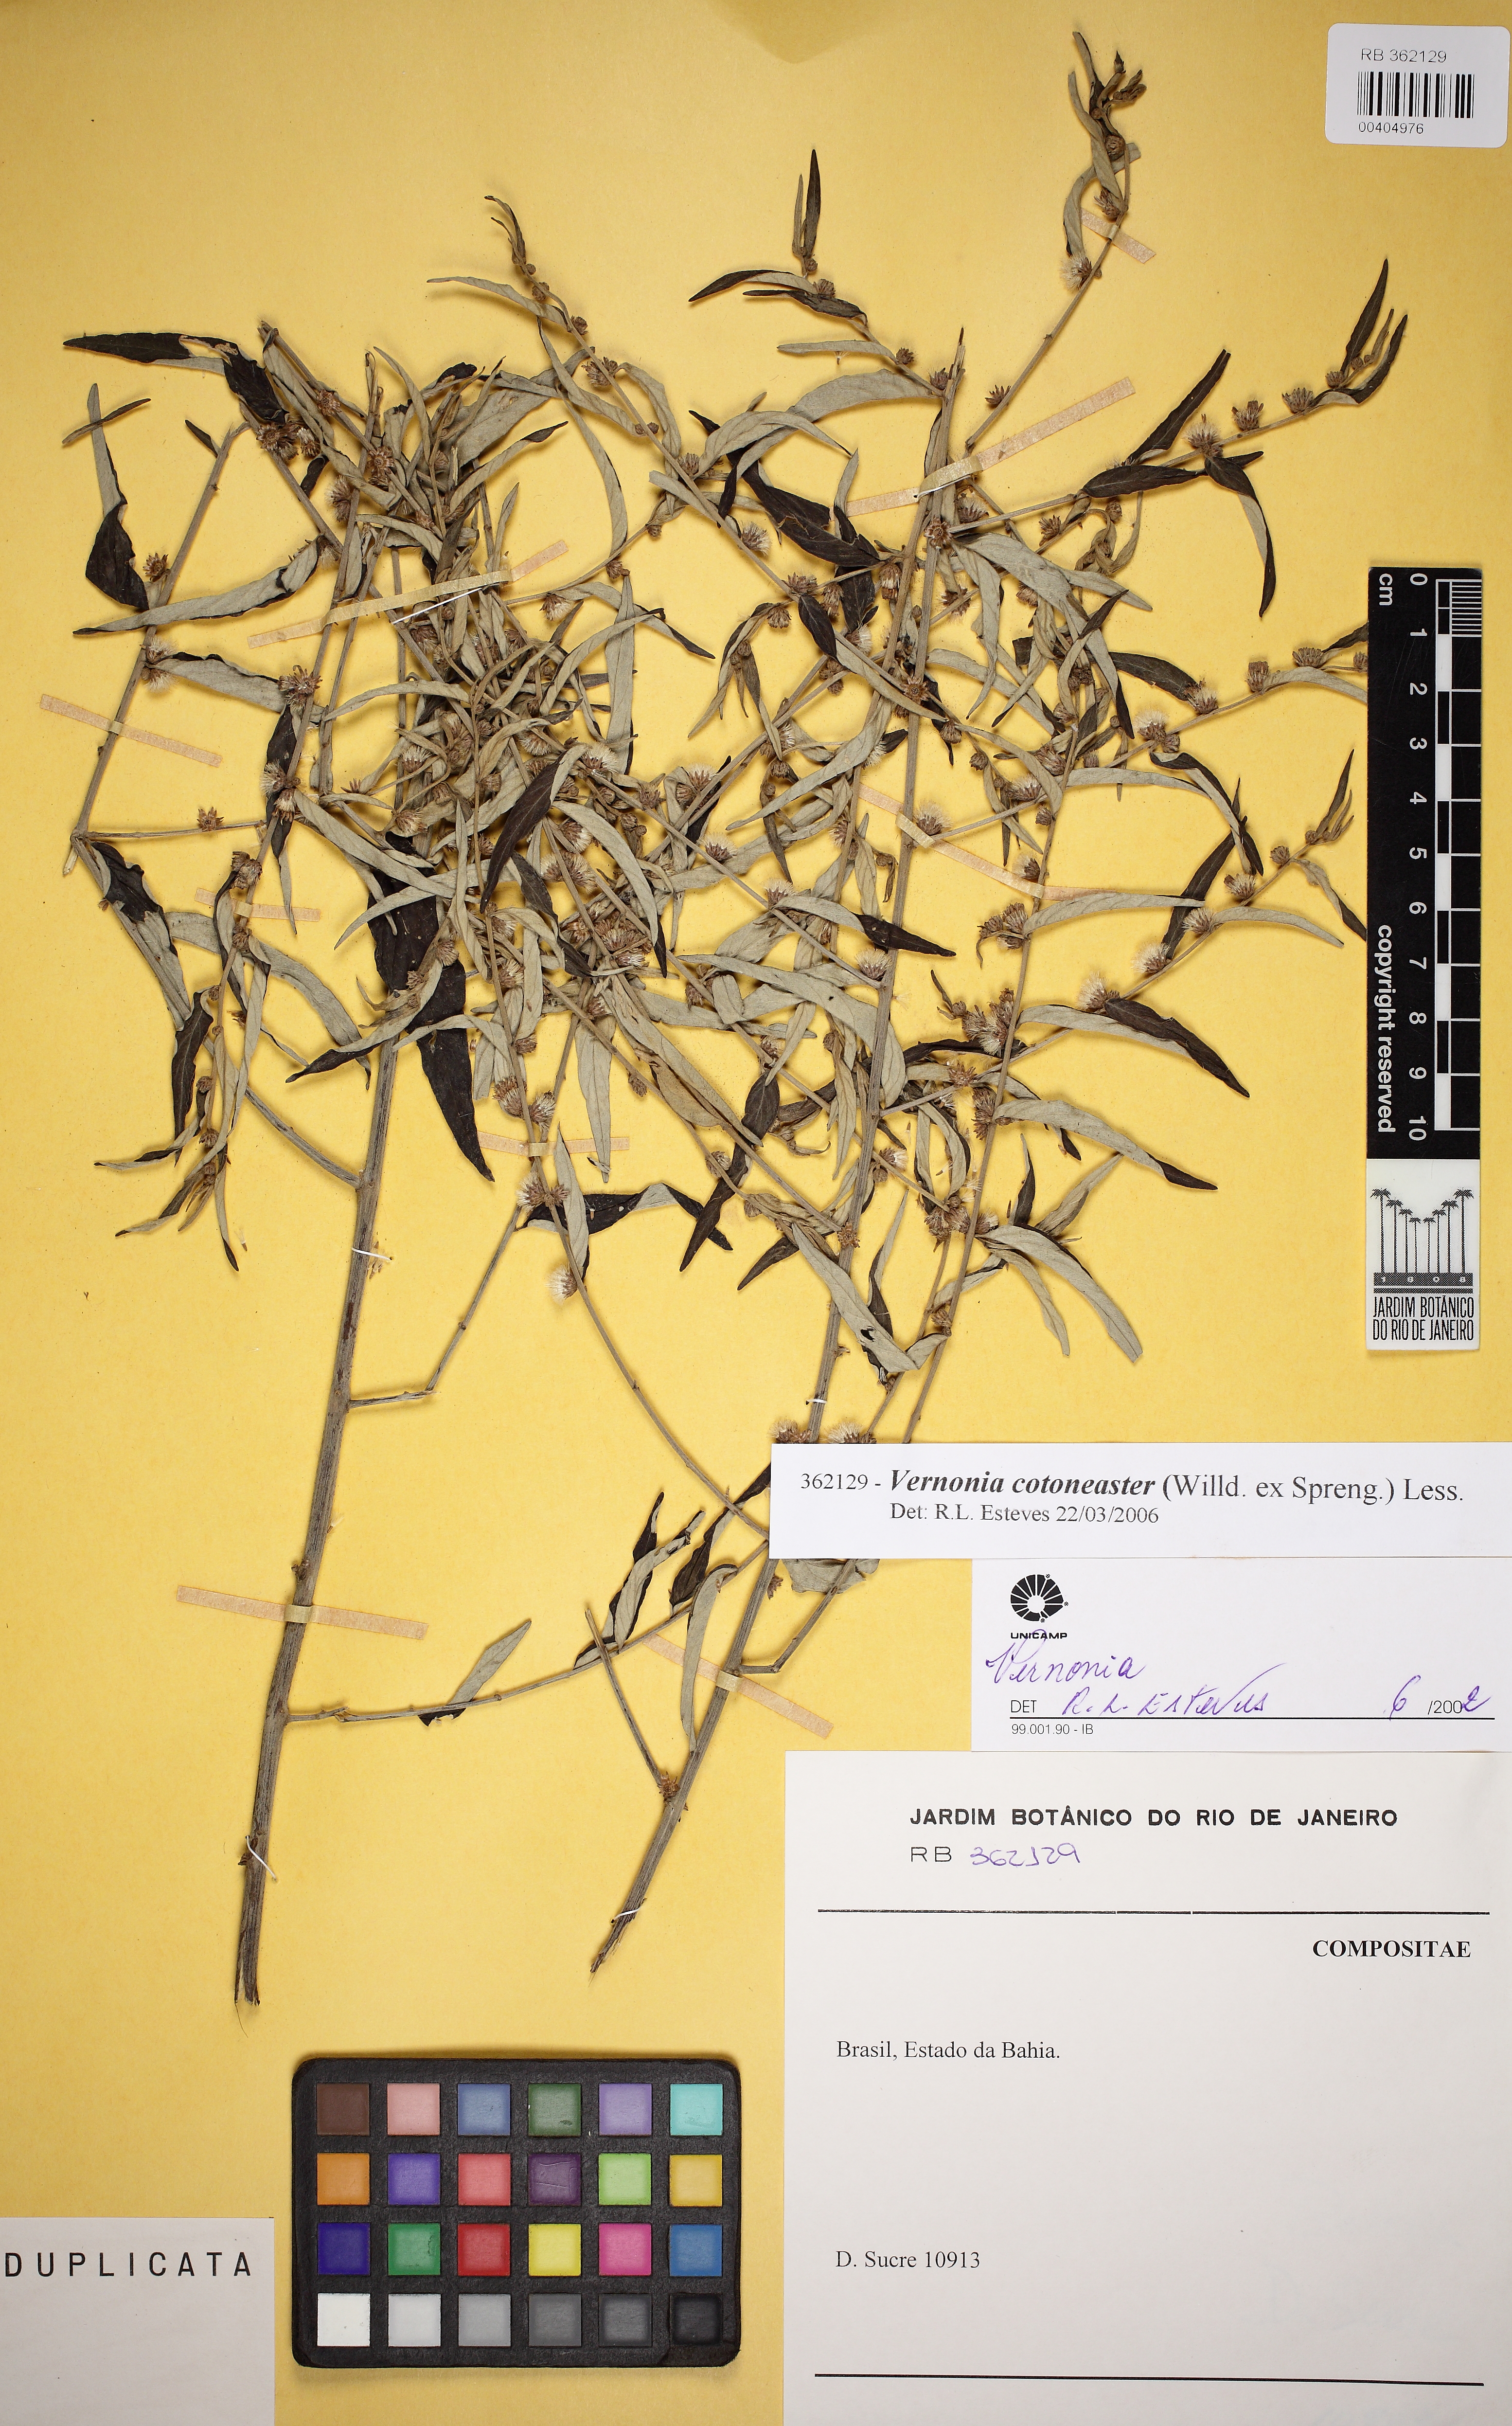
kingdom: Plantae
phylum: Tracheophyta
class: Magnoliopsida
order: Asterales
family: Asteraceae
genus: Lepidaploa
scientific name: Lepidaploa cotoneaster
